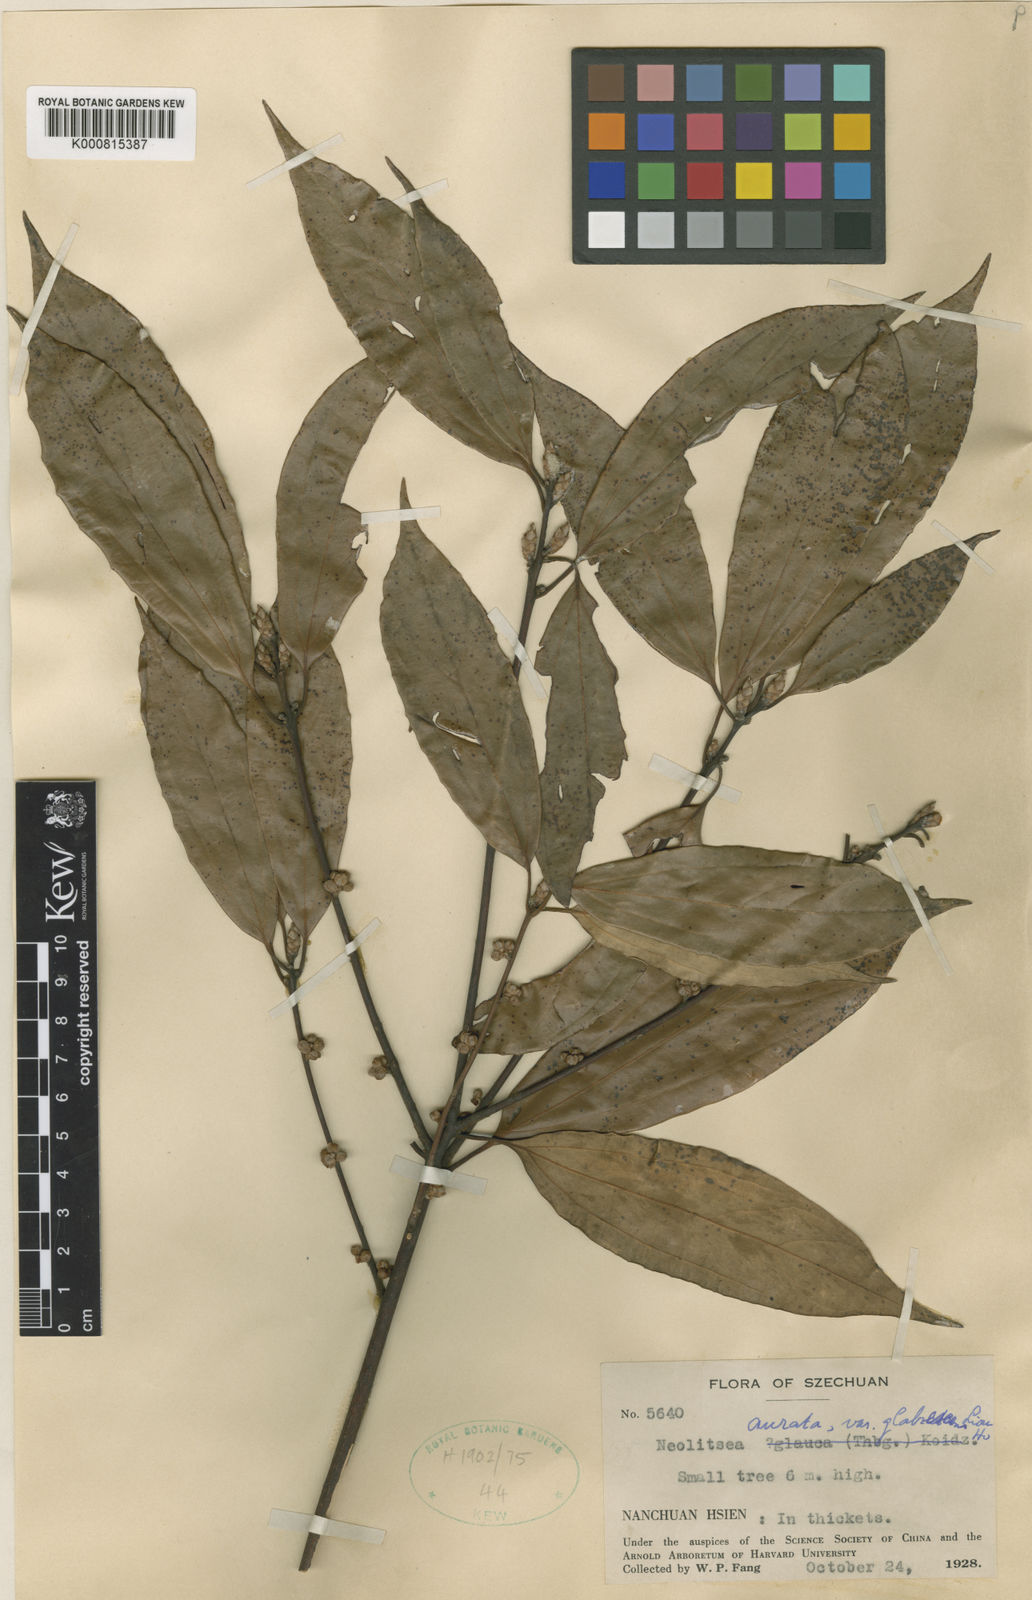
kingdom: Plantae
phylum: Tracheophyta
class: Magnoliopsida
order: Laurales
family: Lauraceae
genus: Neolitsea
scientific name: Neolitsea aurata
